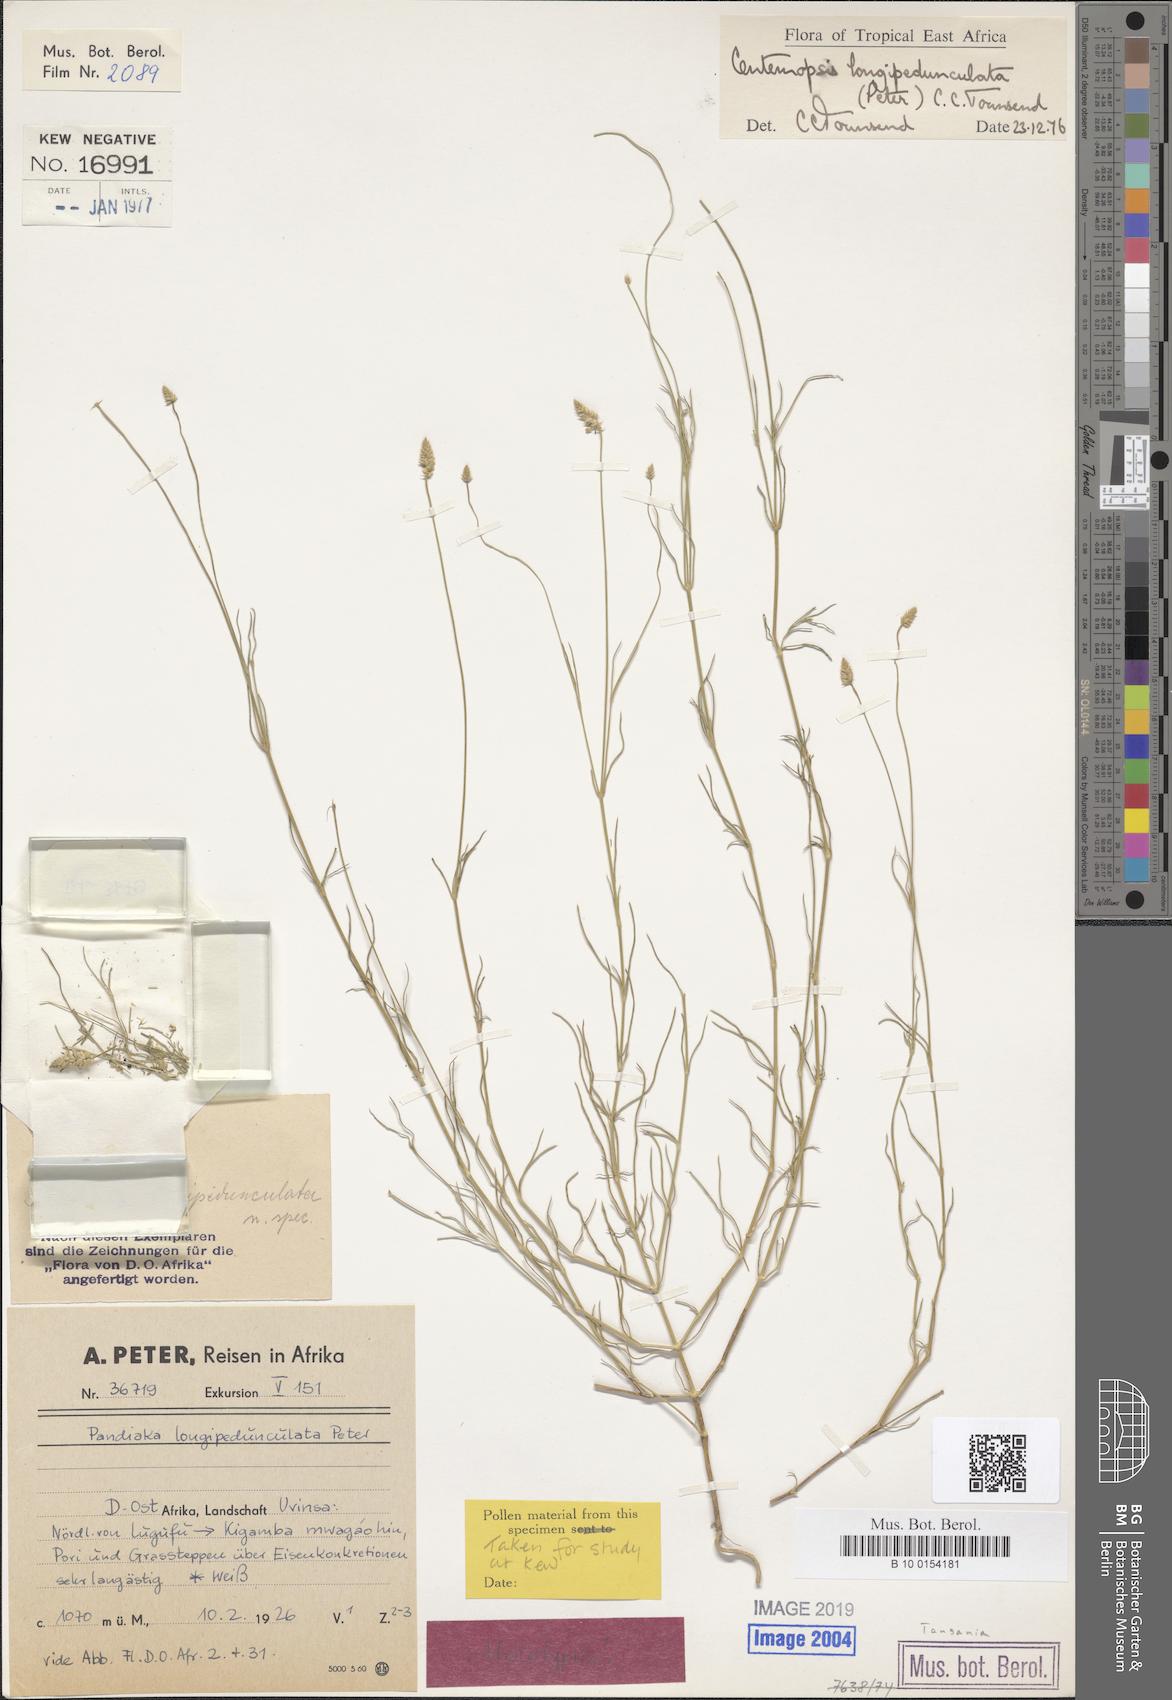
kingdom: Plantae
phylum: Tracheophyta
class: Magnoliopsida
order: Caryophyllales
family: Amaranthaceae
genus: Centemopsis
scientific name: Centemopsis longipedunculata
